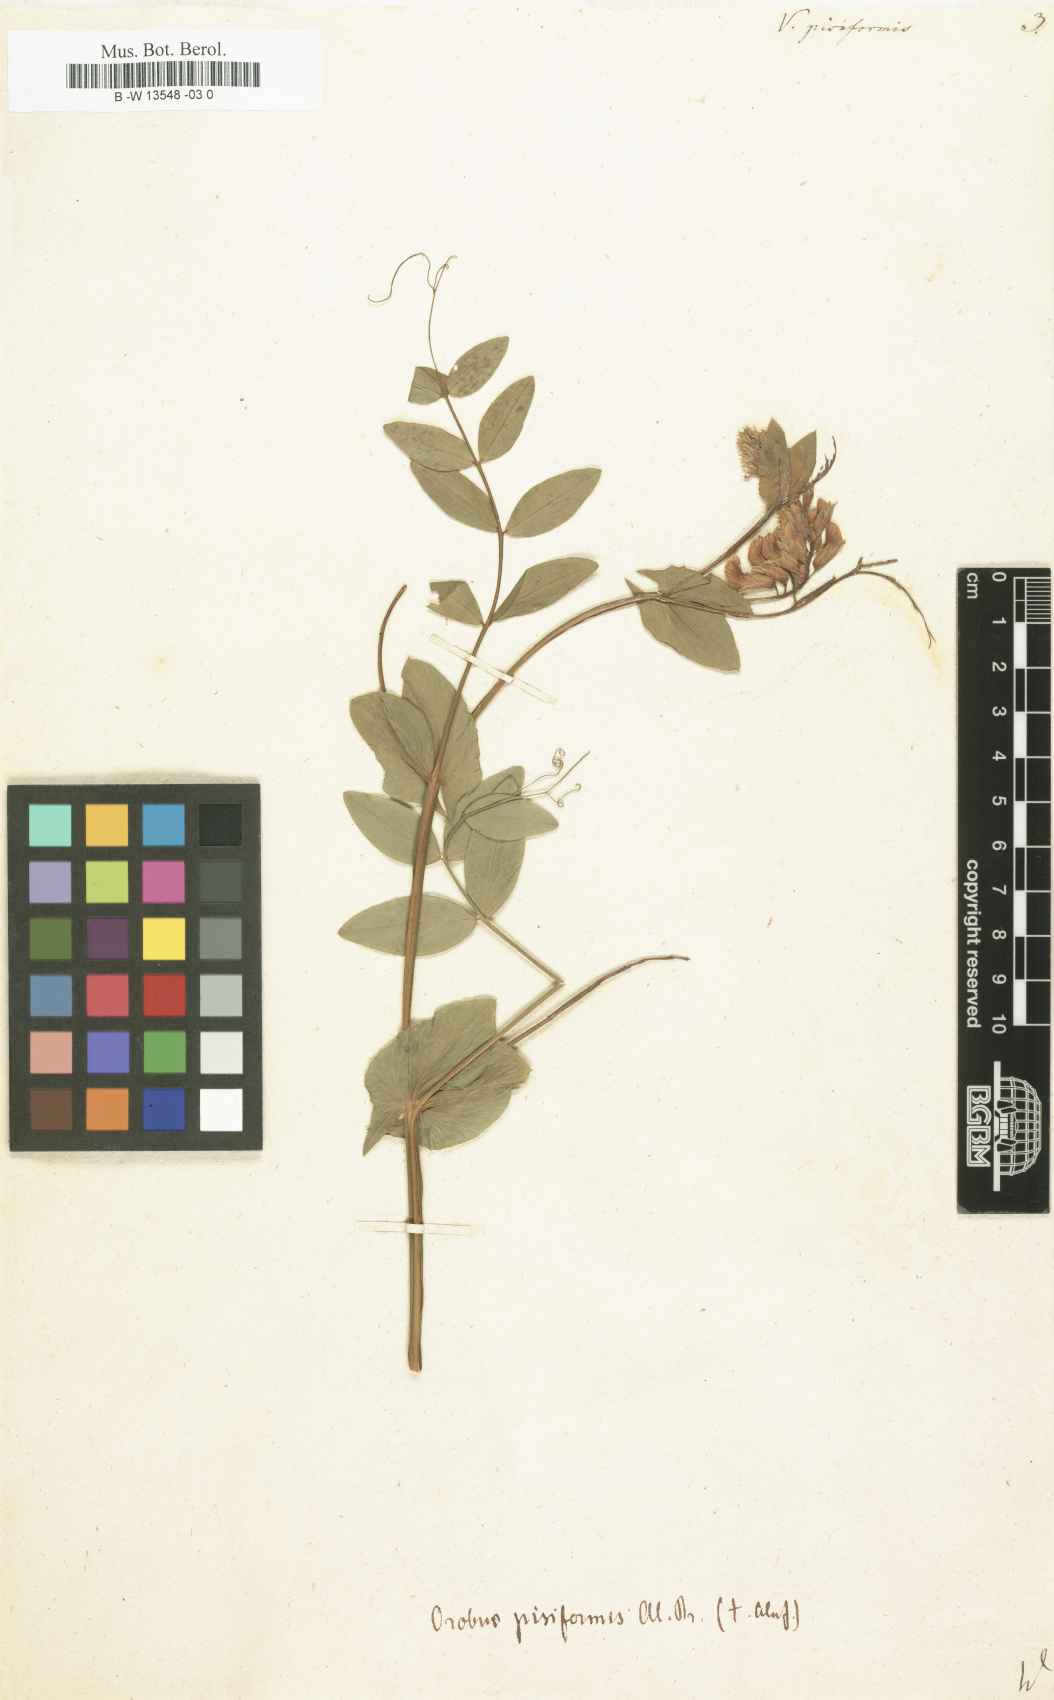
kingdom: Plantae
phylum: Tracheophyta
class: Magnoliopsida
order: Fabales
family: Fabaceae
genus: Vicia
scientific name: Vicia pisiformis
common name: Pale-flower vetch
